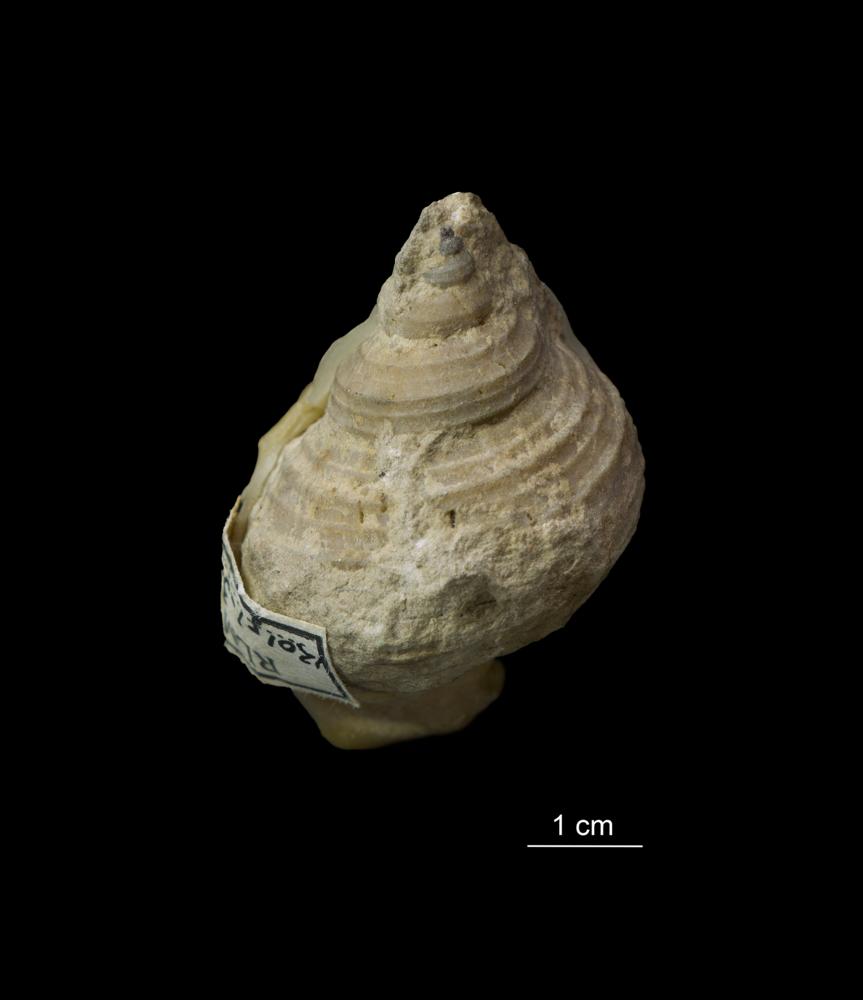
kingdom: Animalia
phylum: Mollusca
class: Gastropoda
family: Platyceratidae
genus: Cyclonema
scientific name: Cyclonema Turbo rupestre
